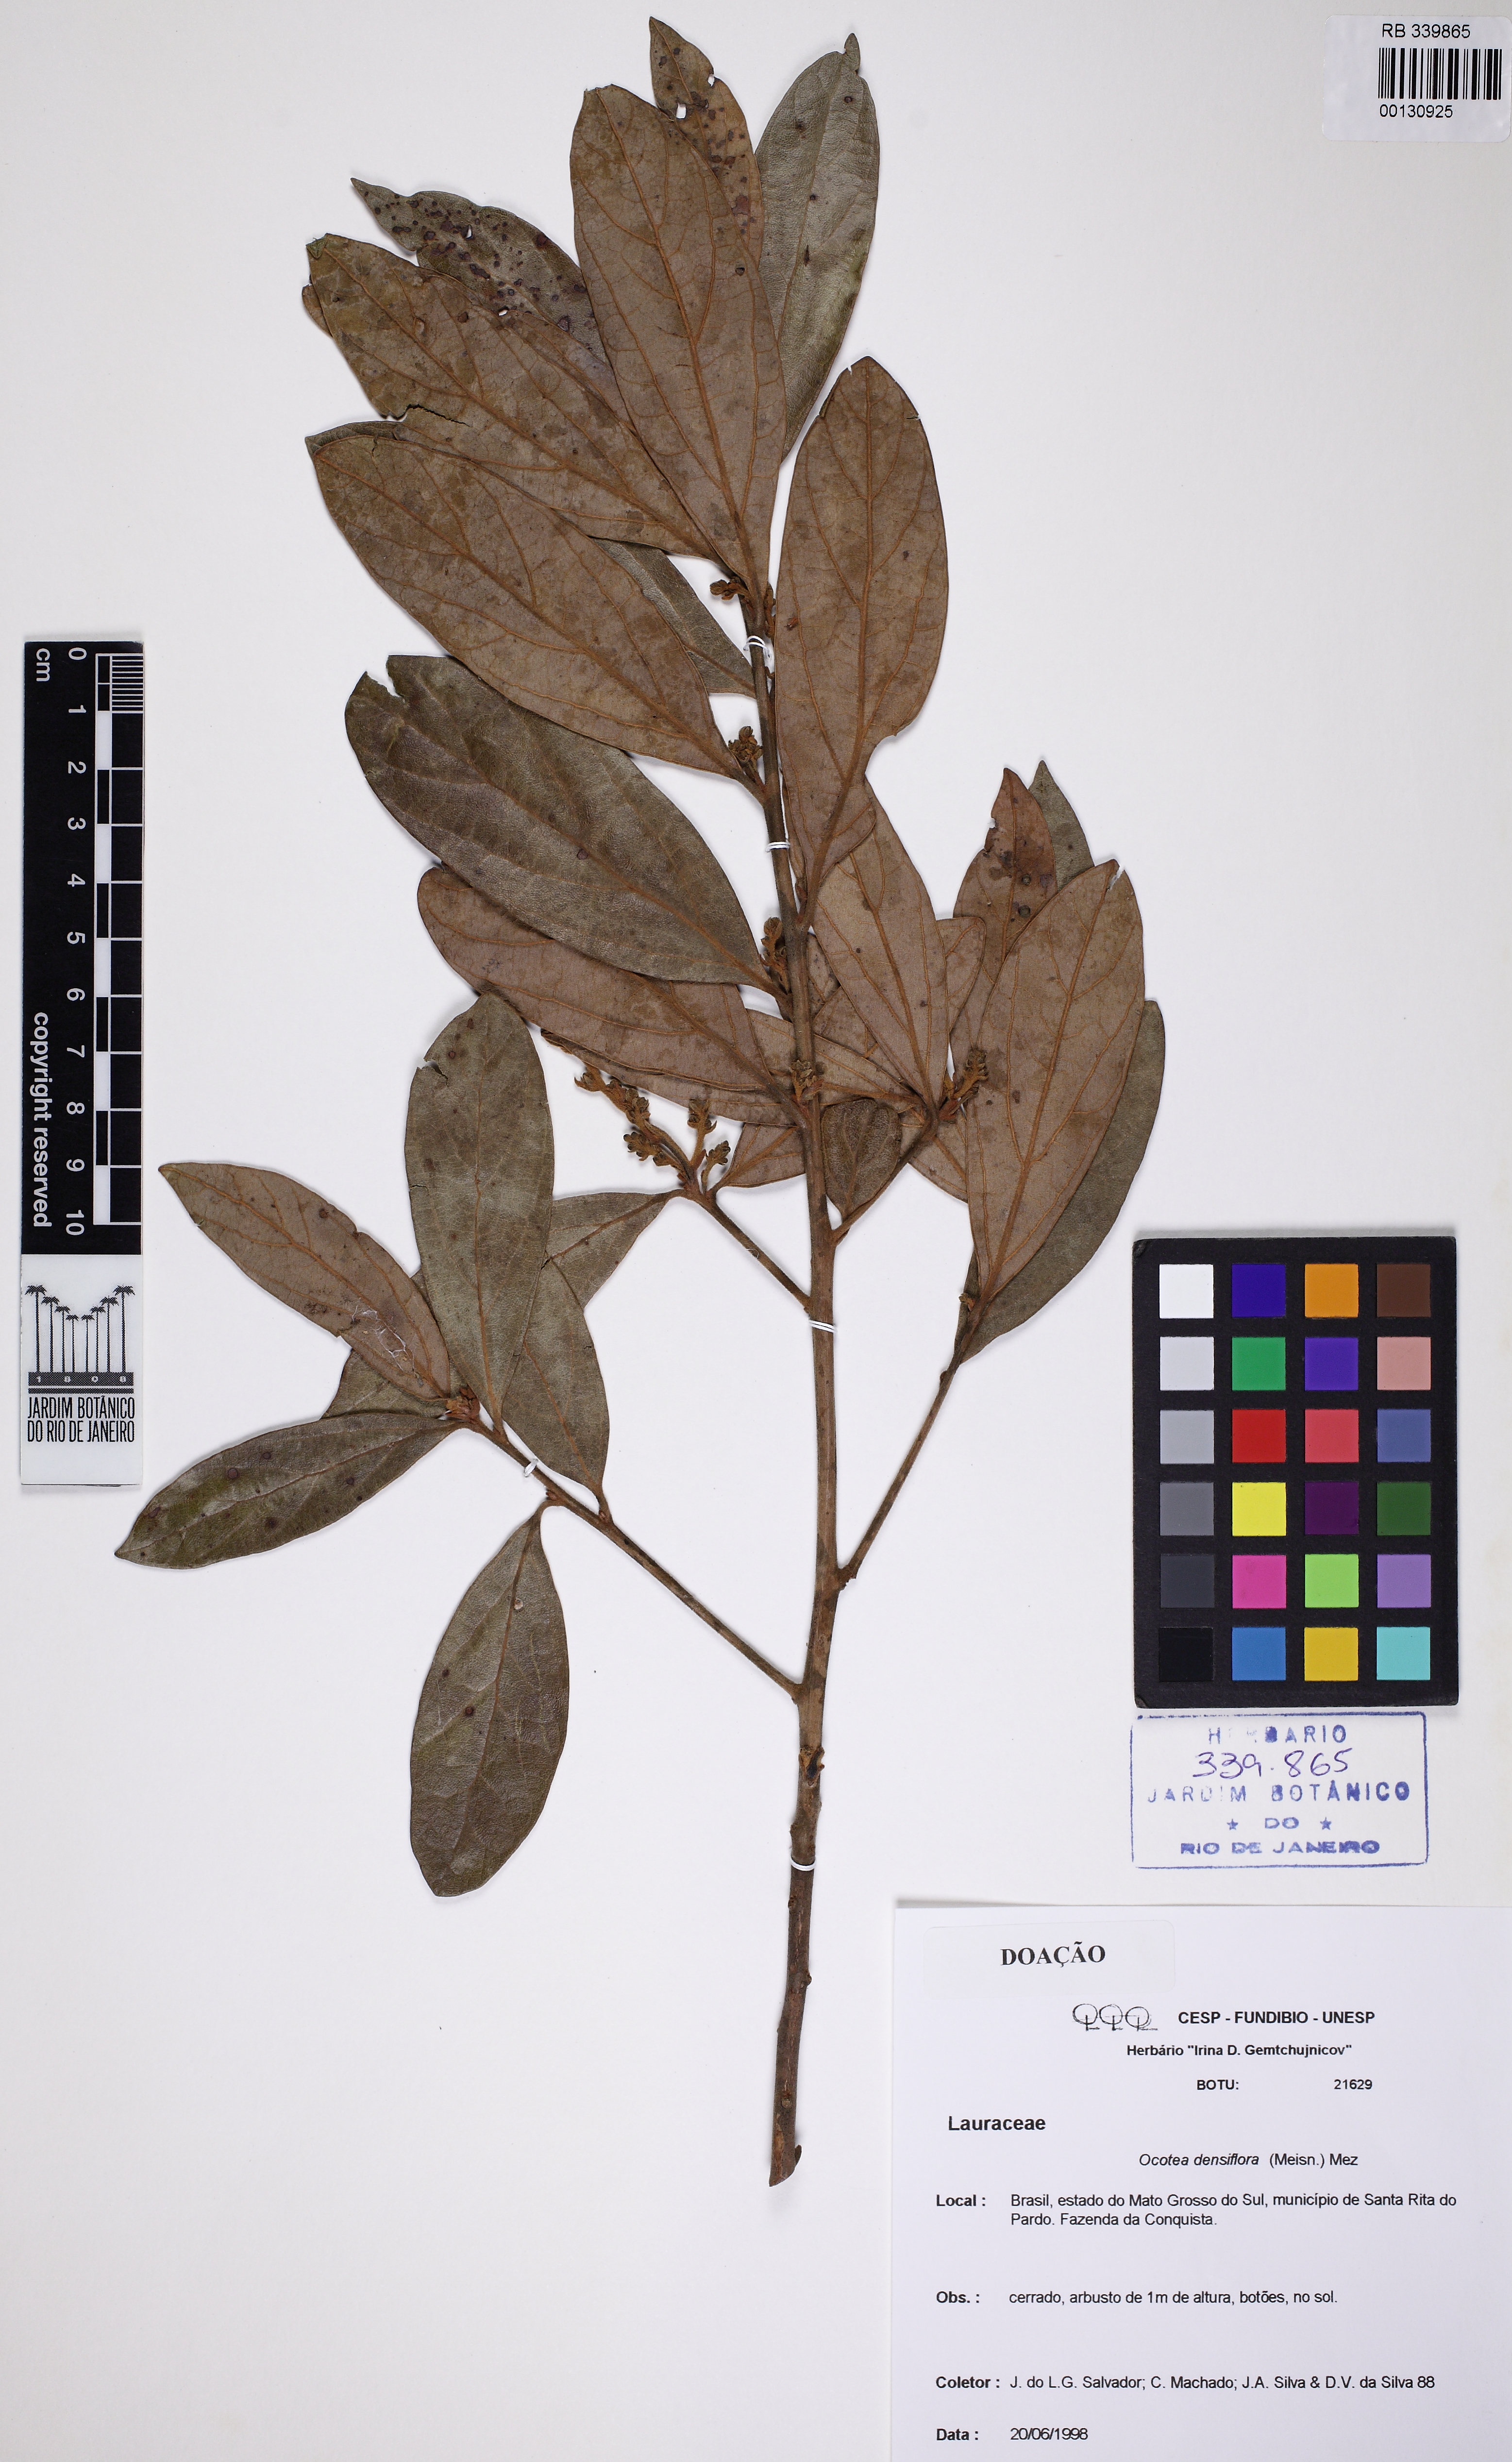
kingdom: Plantae
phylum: Tracheophyta
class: Magnoliopsida
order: Laurales
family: Lauraceae
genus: Ocotea
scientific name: Ocotea densiflora
